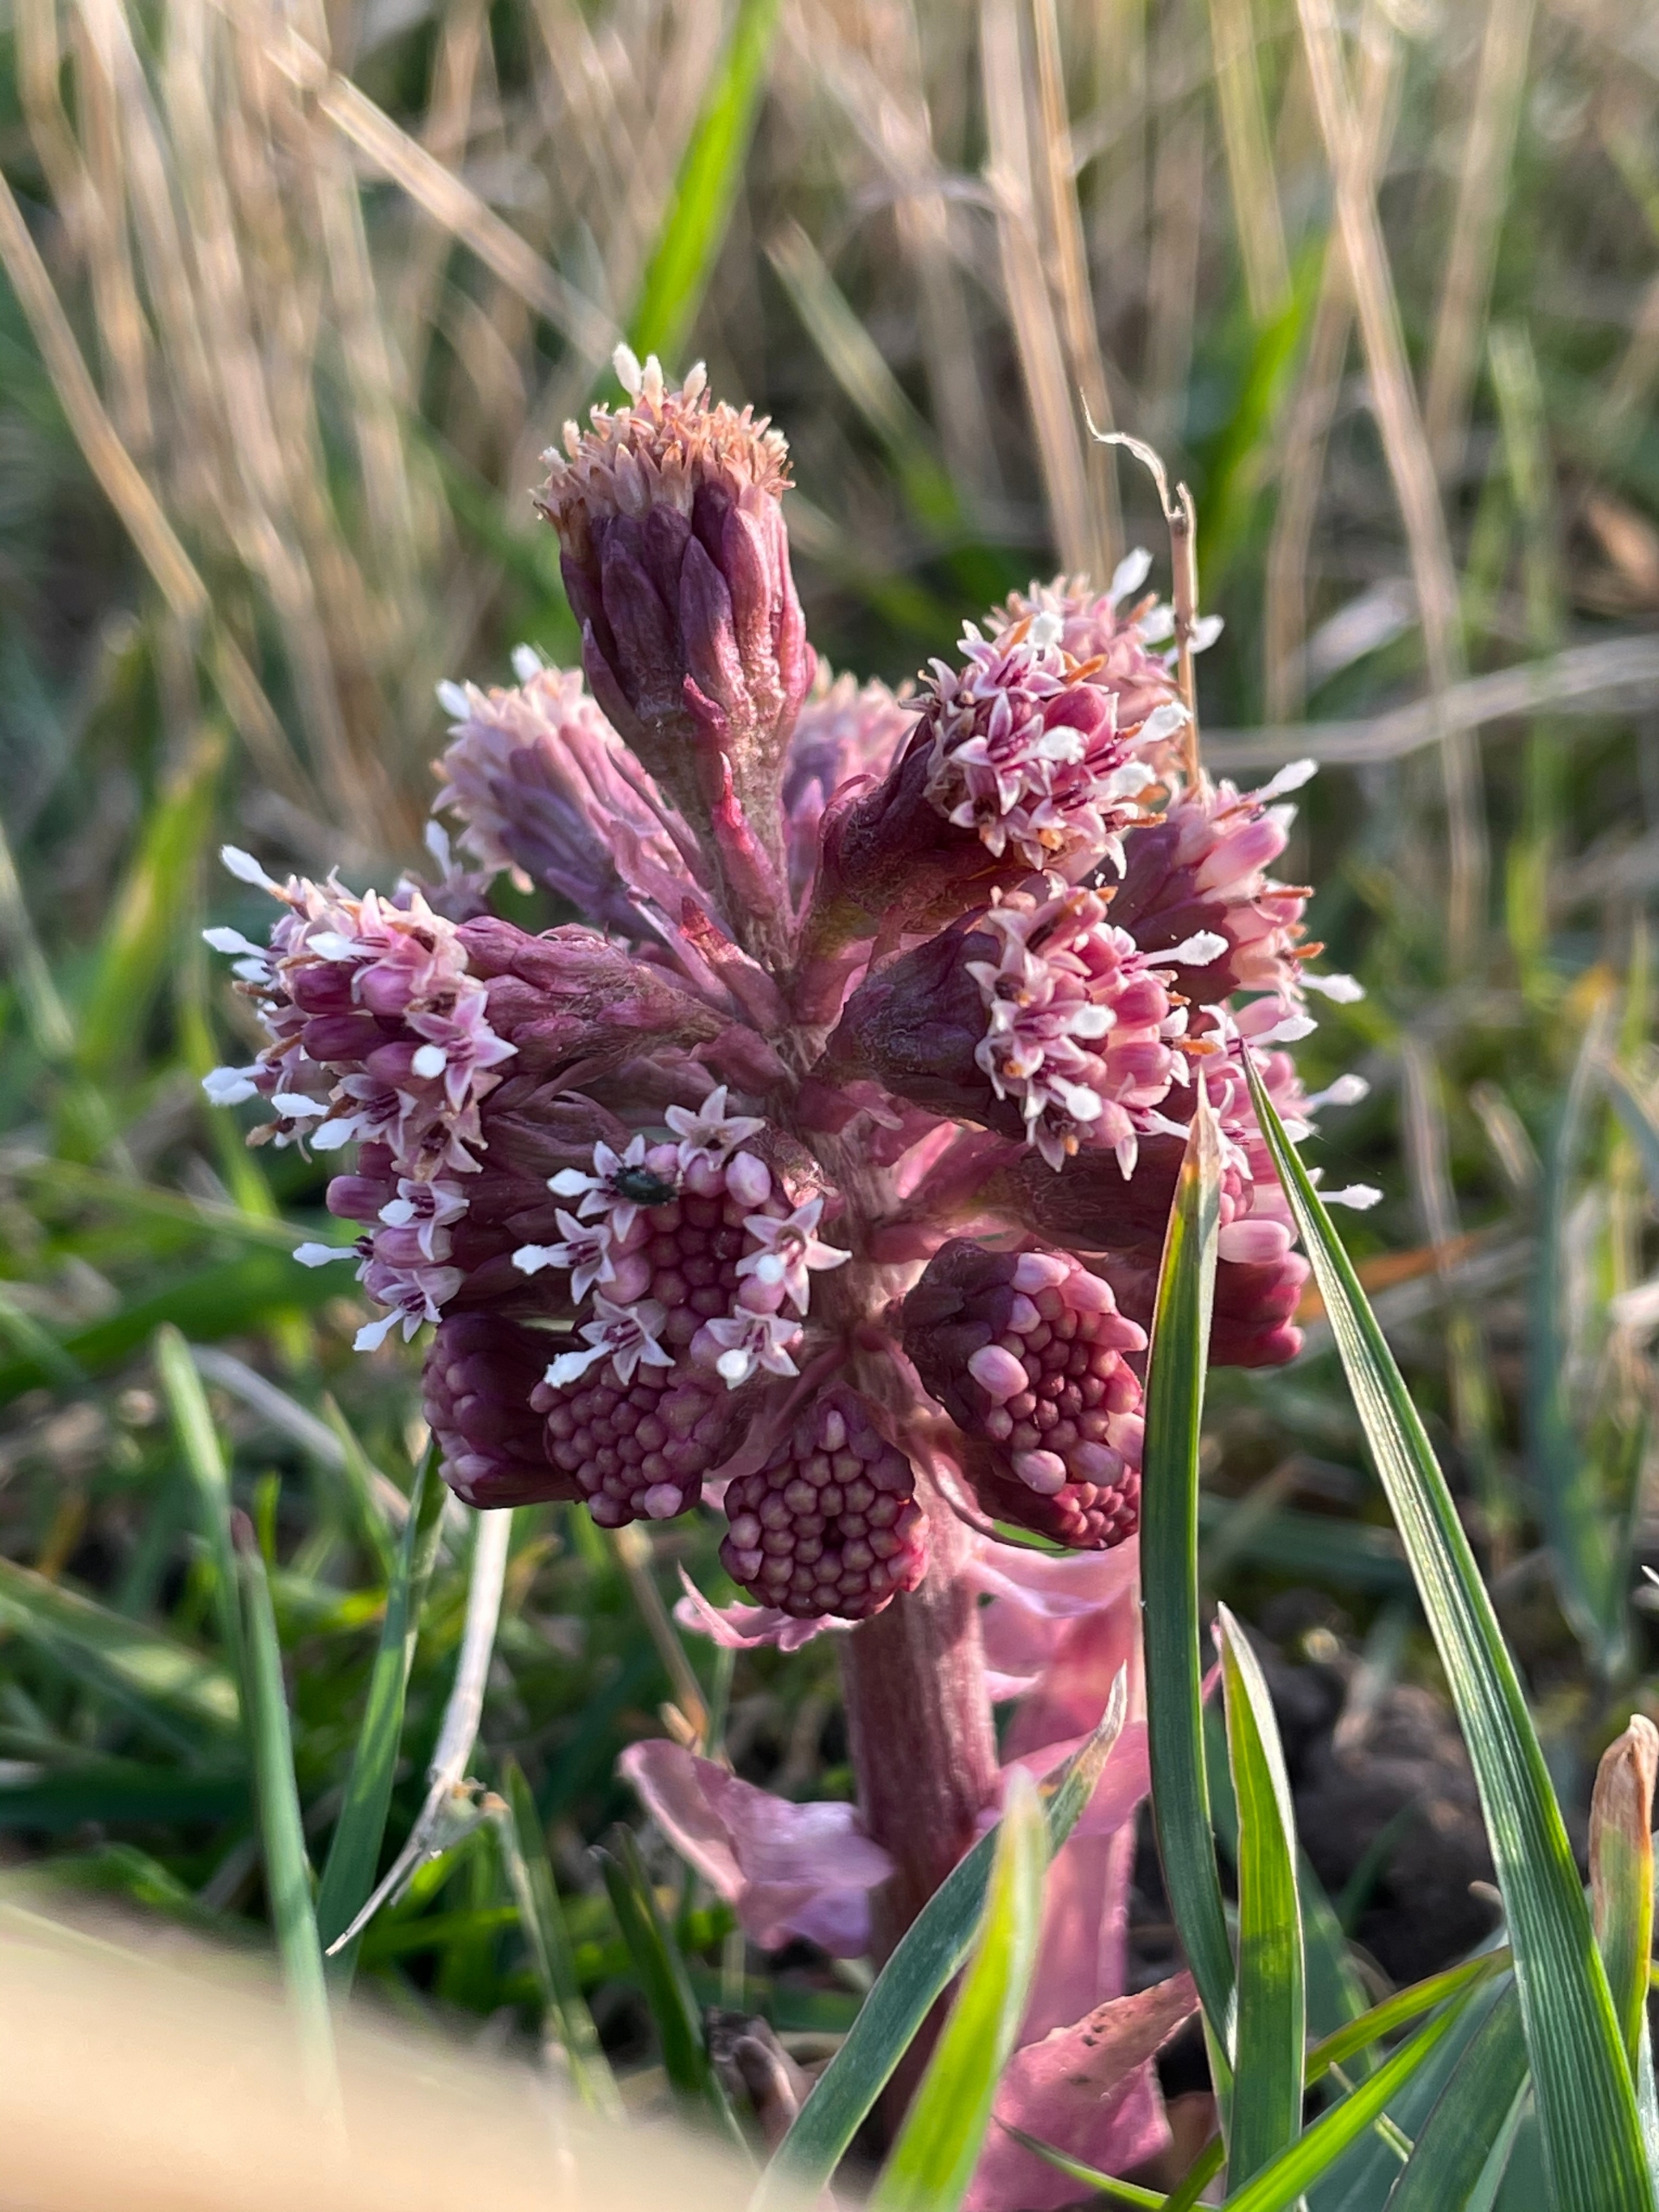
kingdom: Plantae
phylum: Tracheophyta
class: Magnoliopsida
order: Asterales
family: Asteraceae
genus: Petasites
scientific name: Petasites hybridus
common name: Rød hestehov
